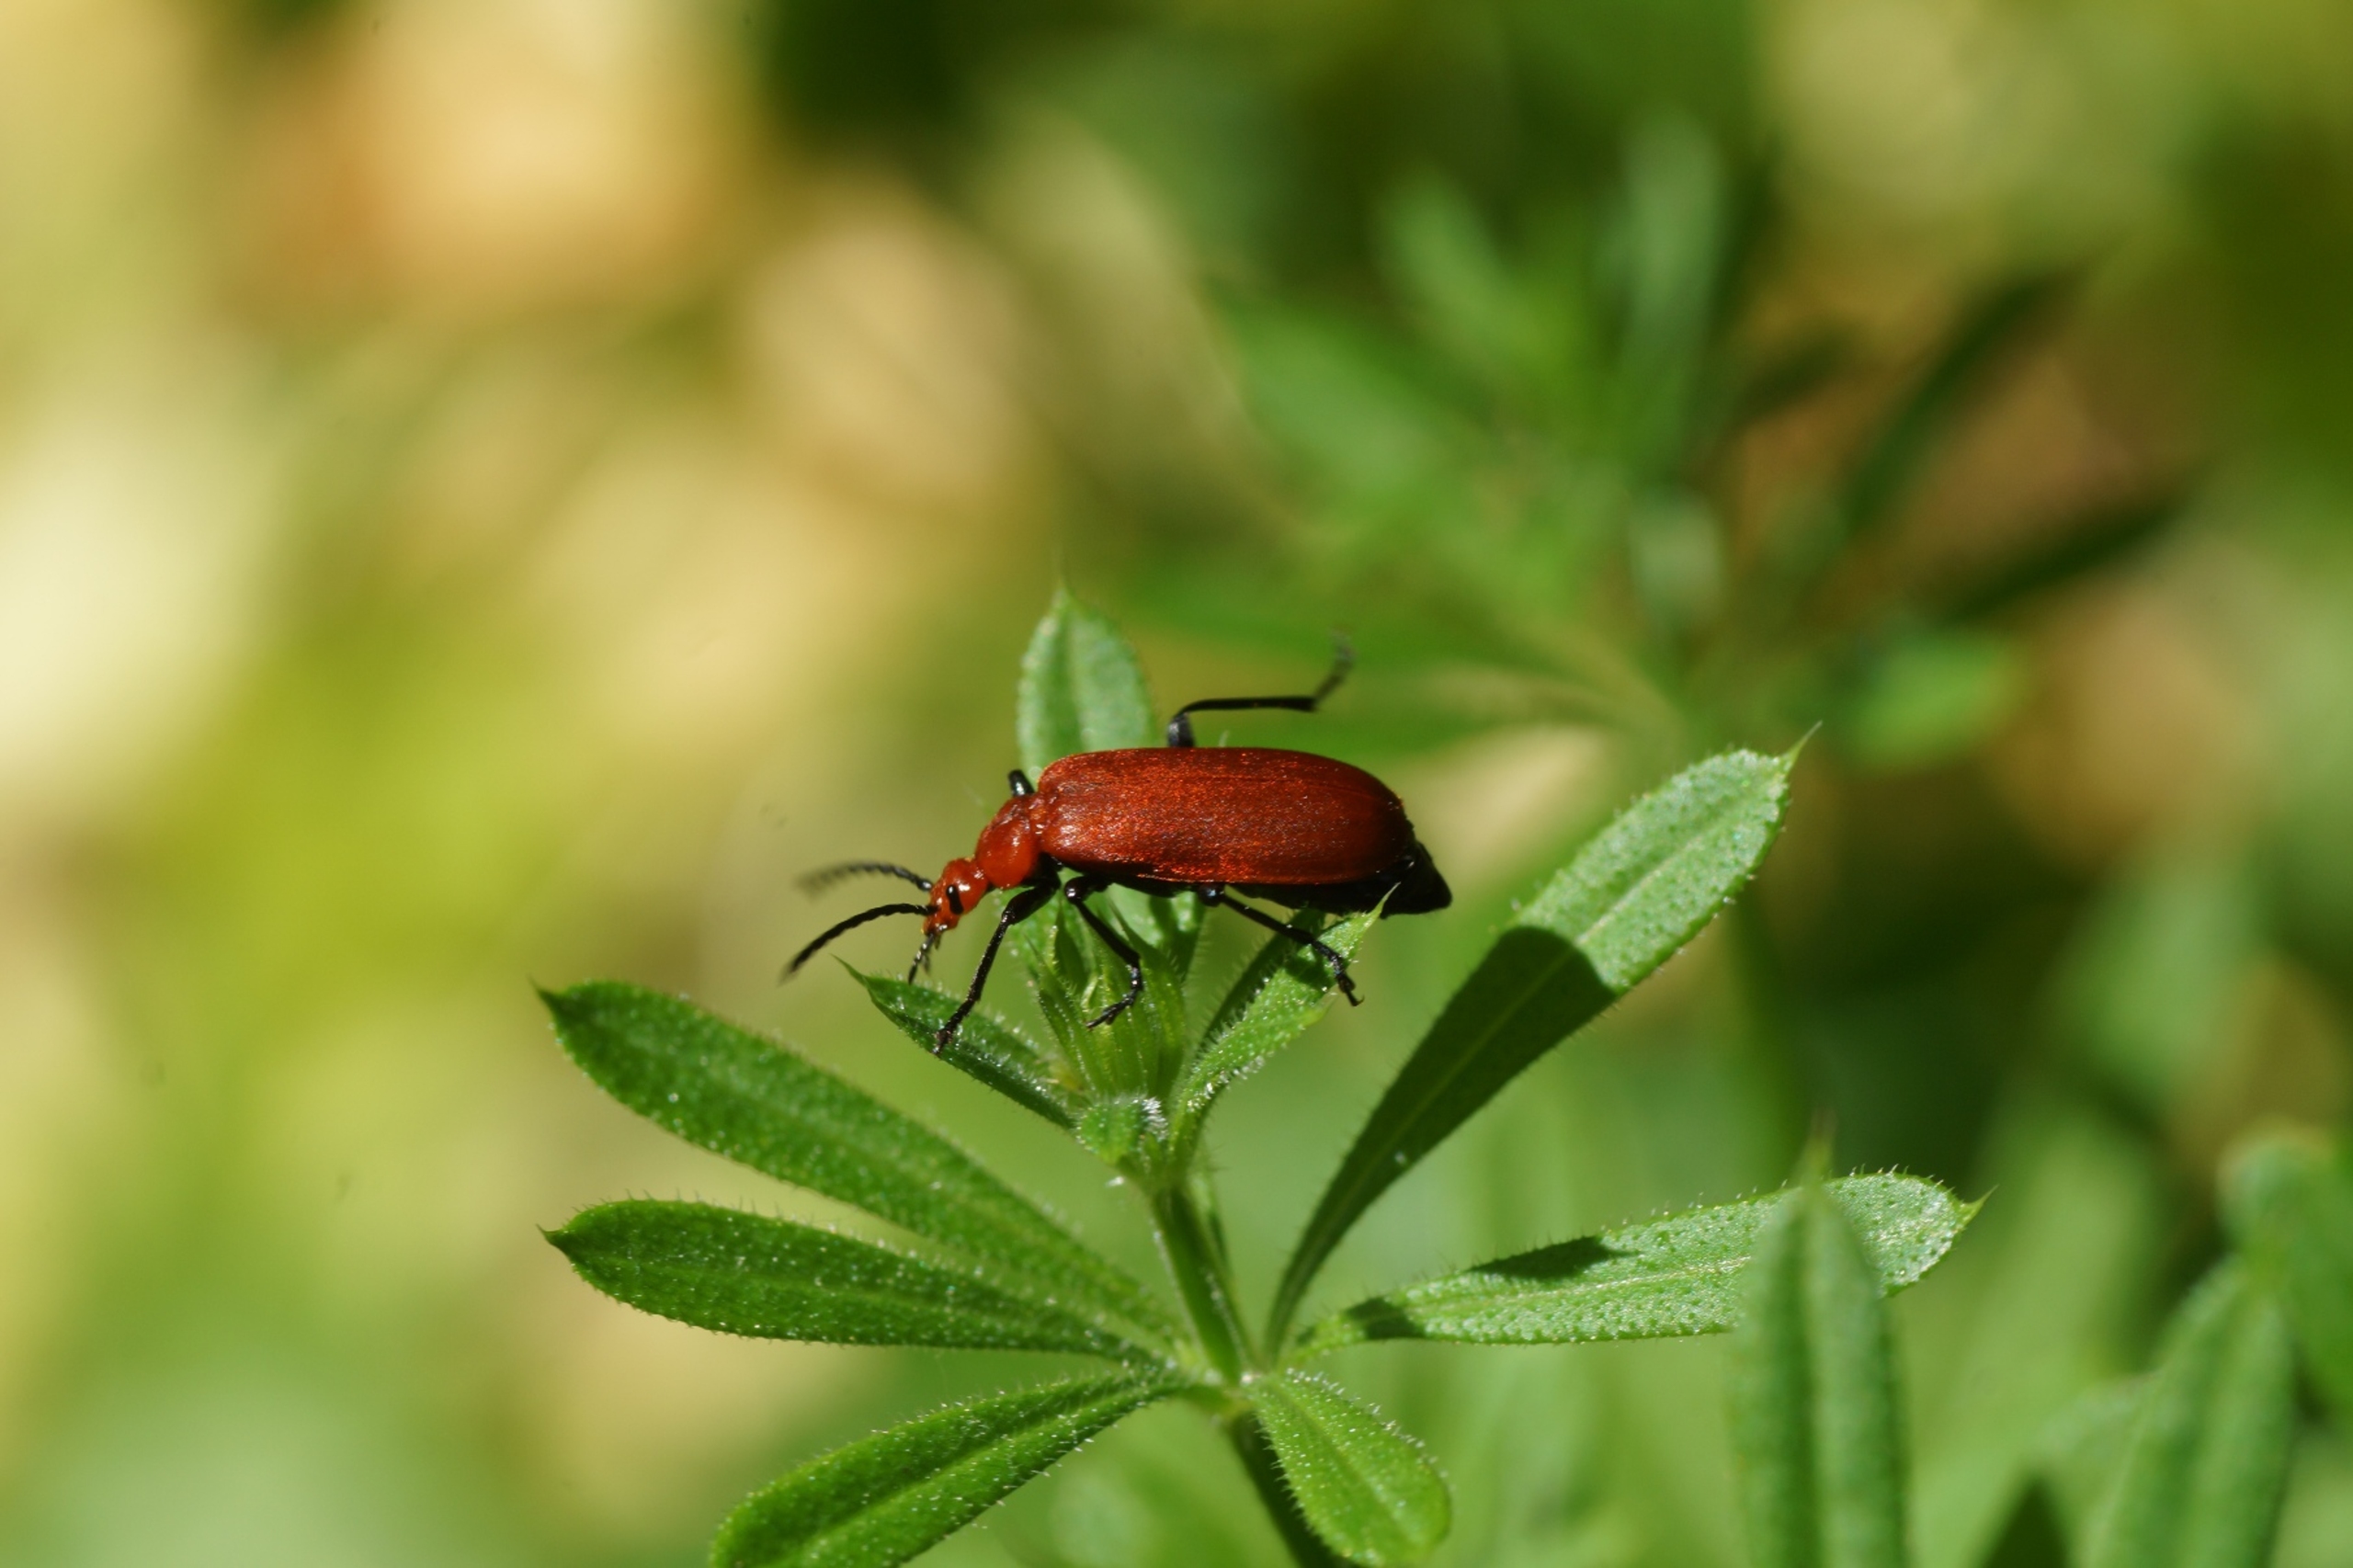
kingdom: Animalia
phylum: Arthropoda
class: Insecta
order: Coleoptera
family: Pyrochroidae
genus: Pyrochroa
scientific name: Pyrochroa serraticornis
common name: Rødhovedet kardinalbille
